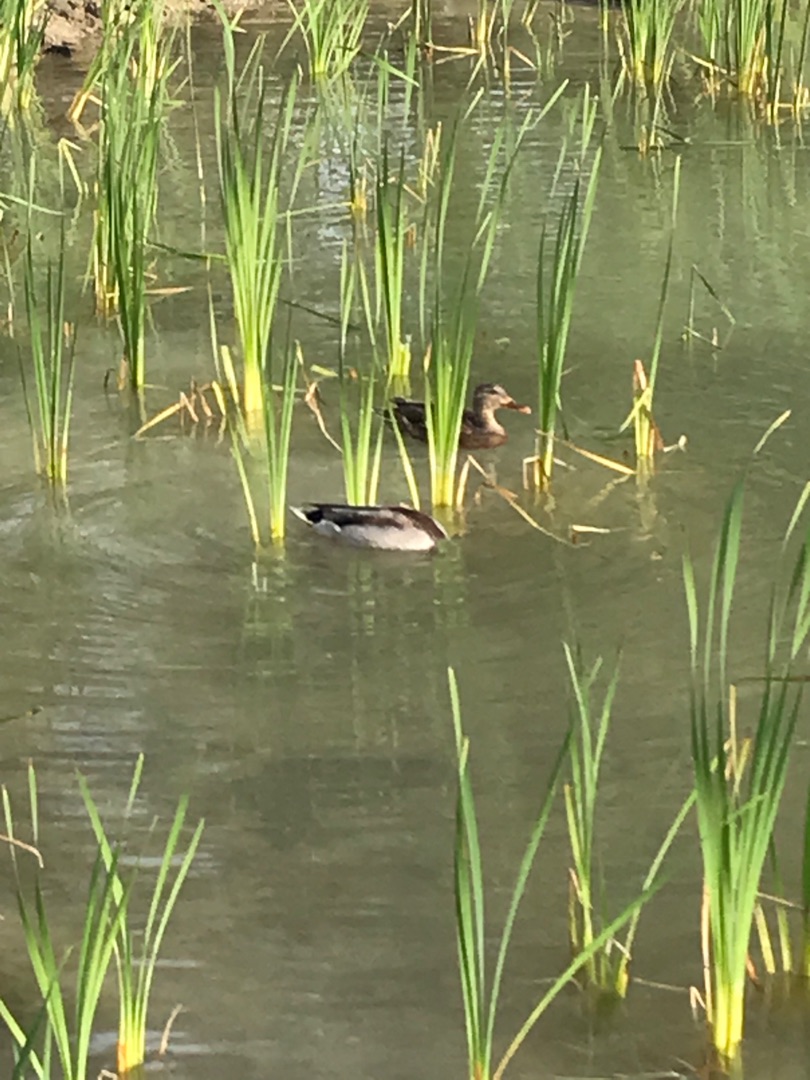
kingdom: Animalia
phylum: Chordata
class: Aves
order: Anseriformes
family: Anatidae
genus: Anas
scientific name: Anas platyrhynchos
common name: Gråand
